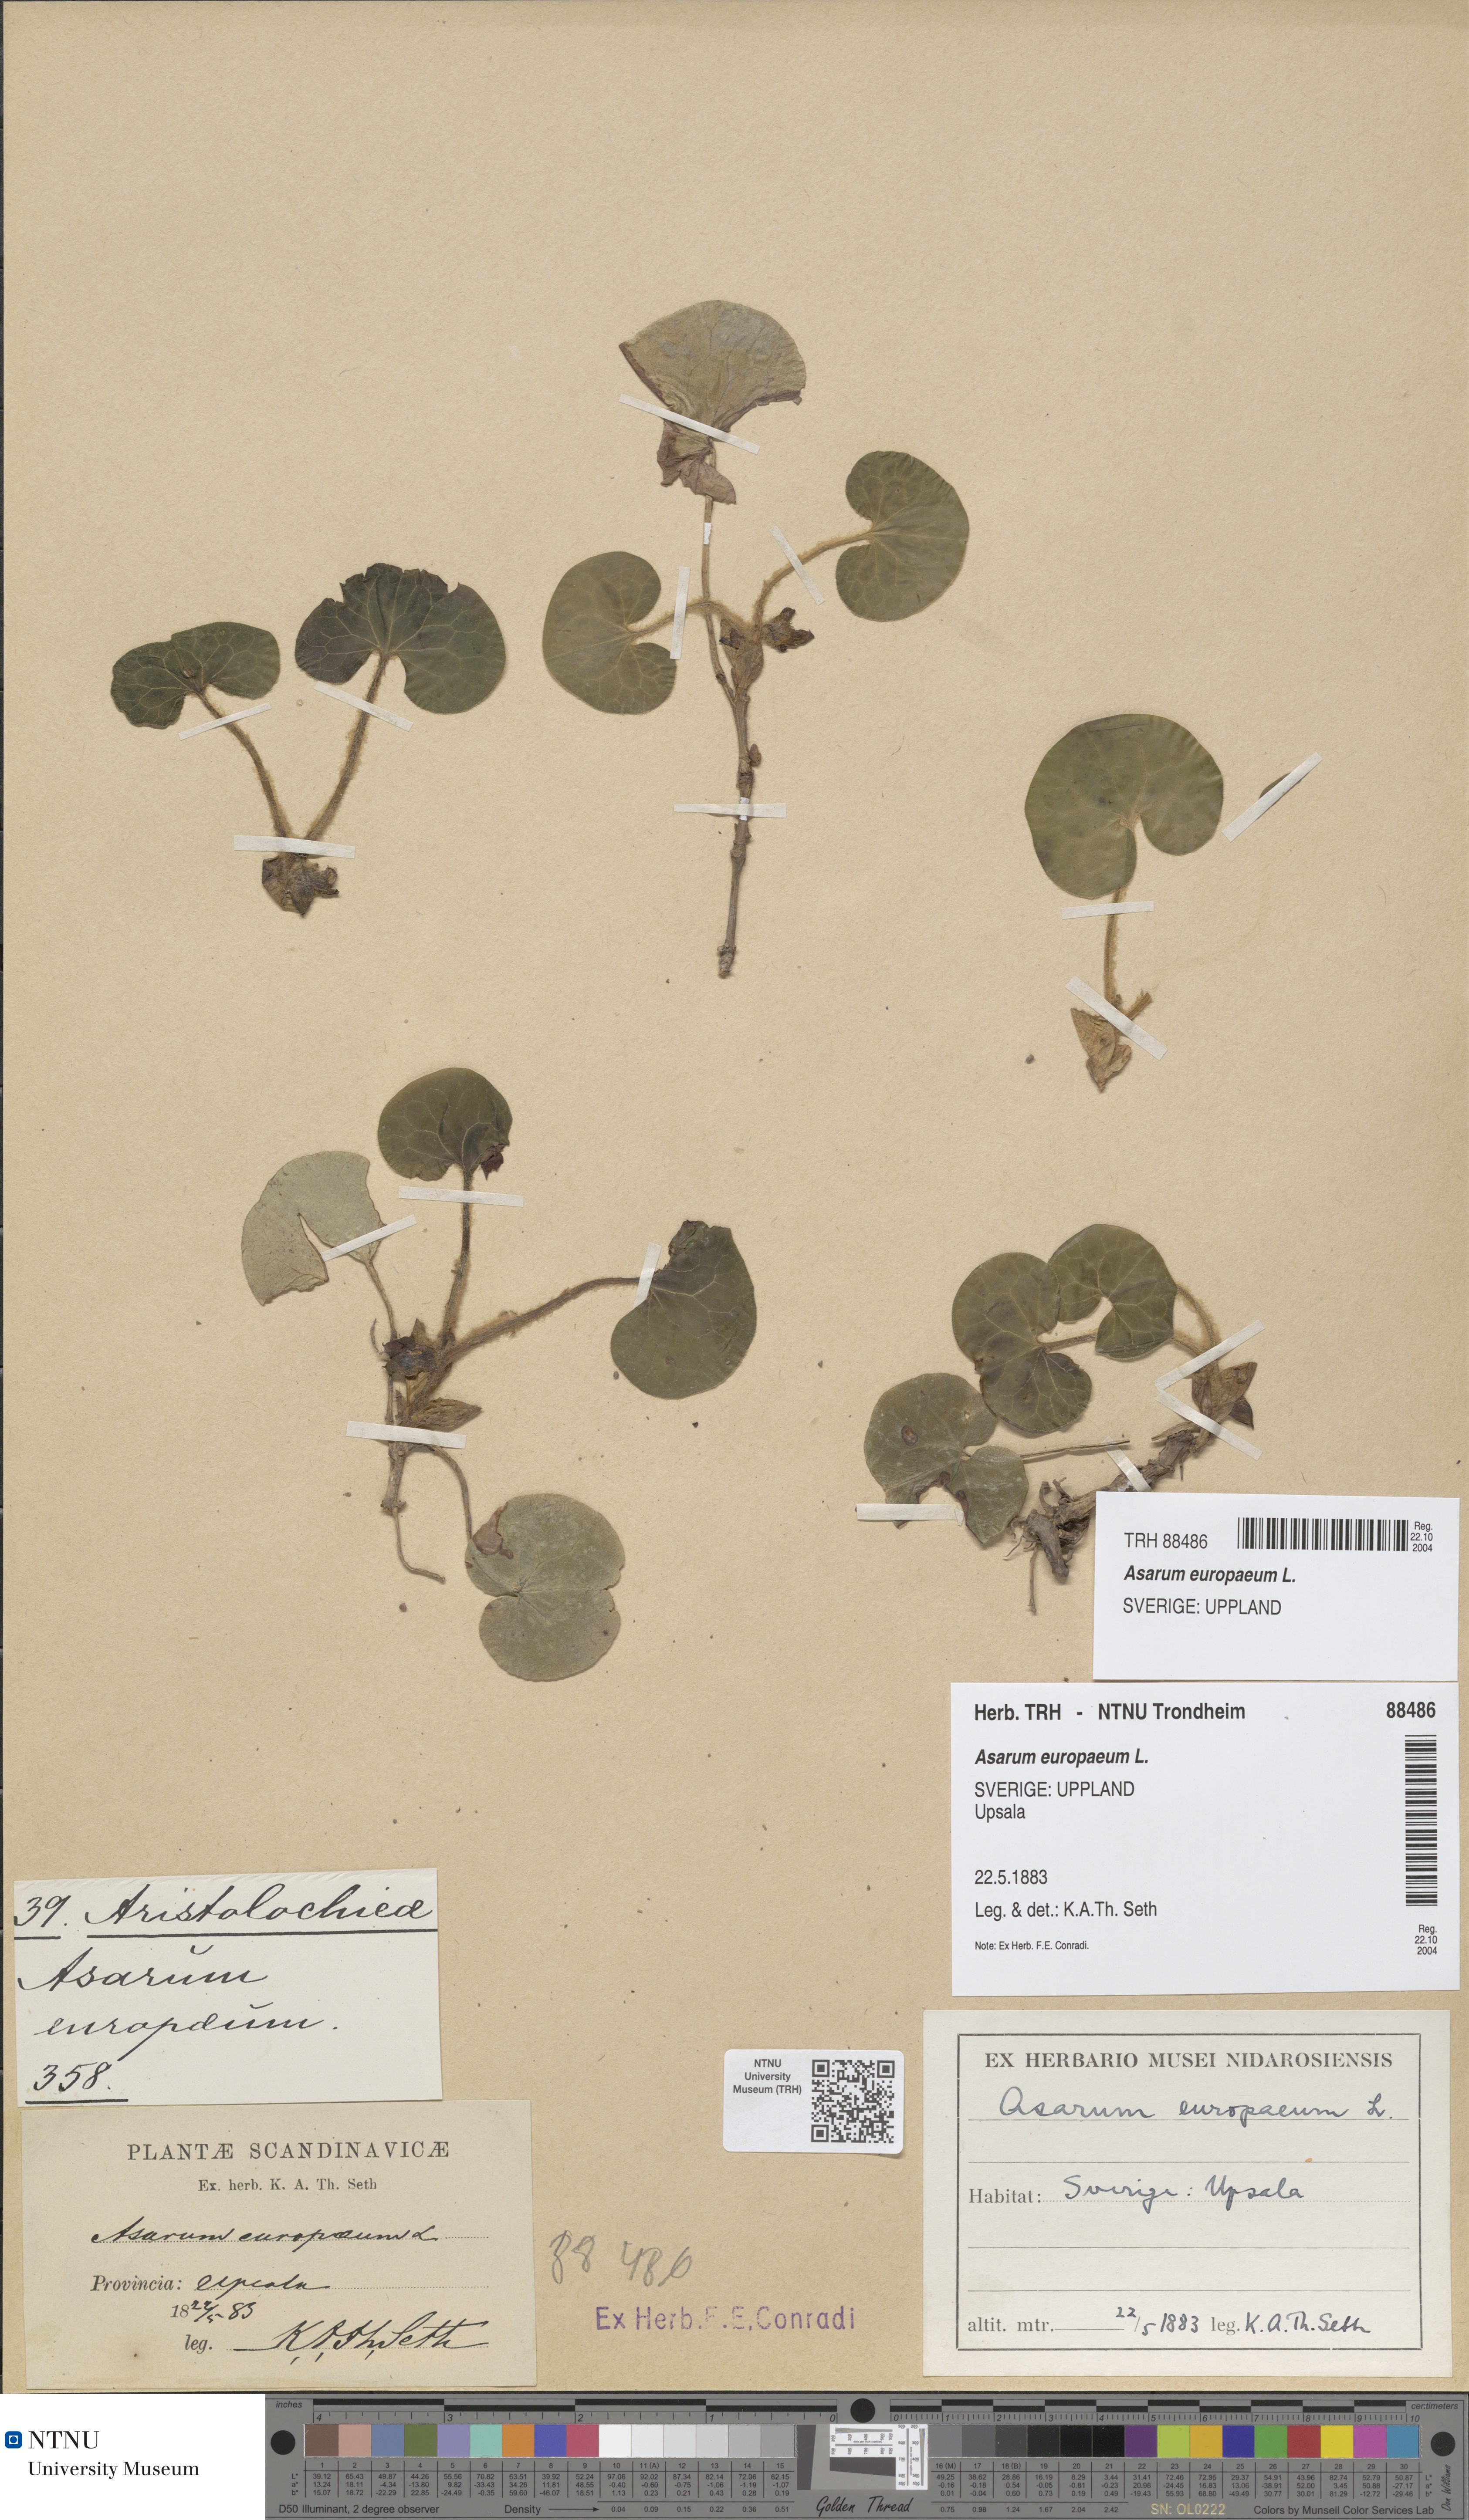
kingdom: Plantae
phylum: Tracheophyta
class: Magnoliopsida
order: Piperales
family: Aristolochiaceae
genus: Asarum
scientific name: Asarum europaeum
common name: Asarabacca
